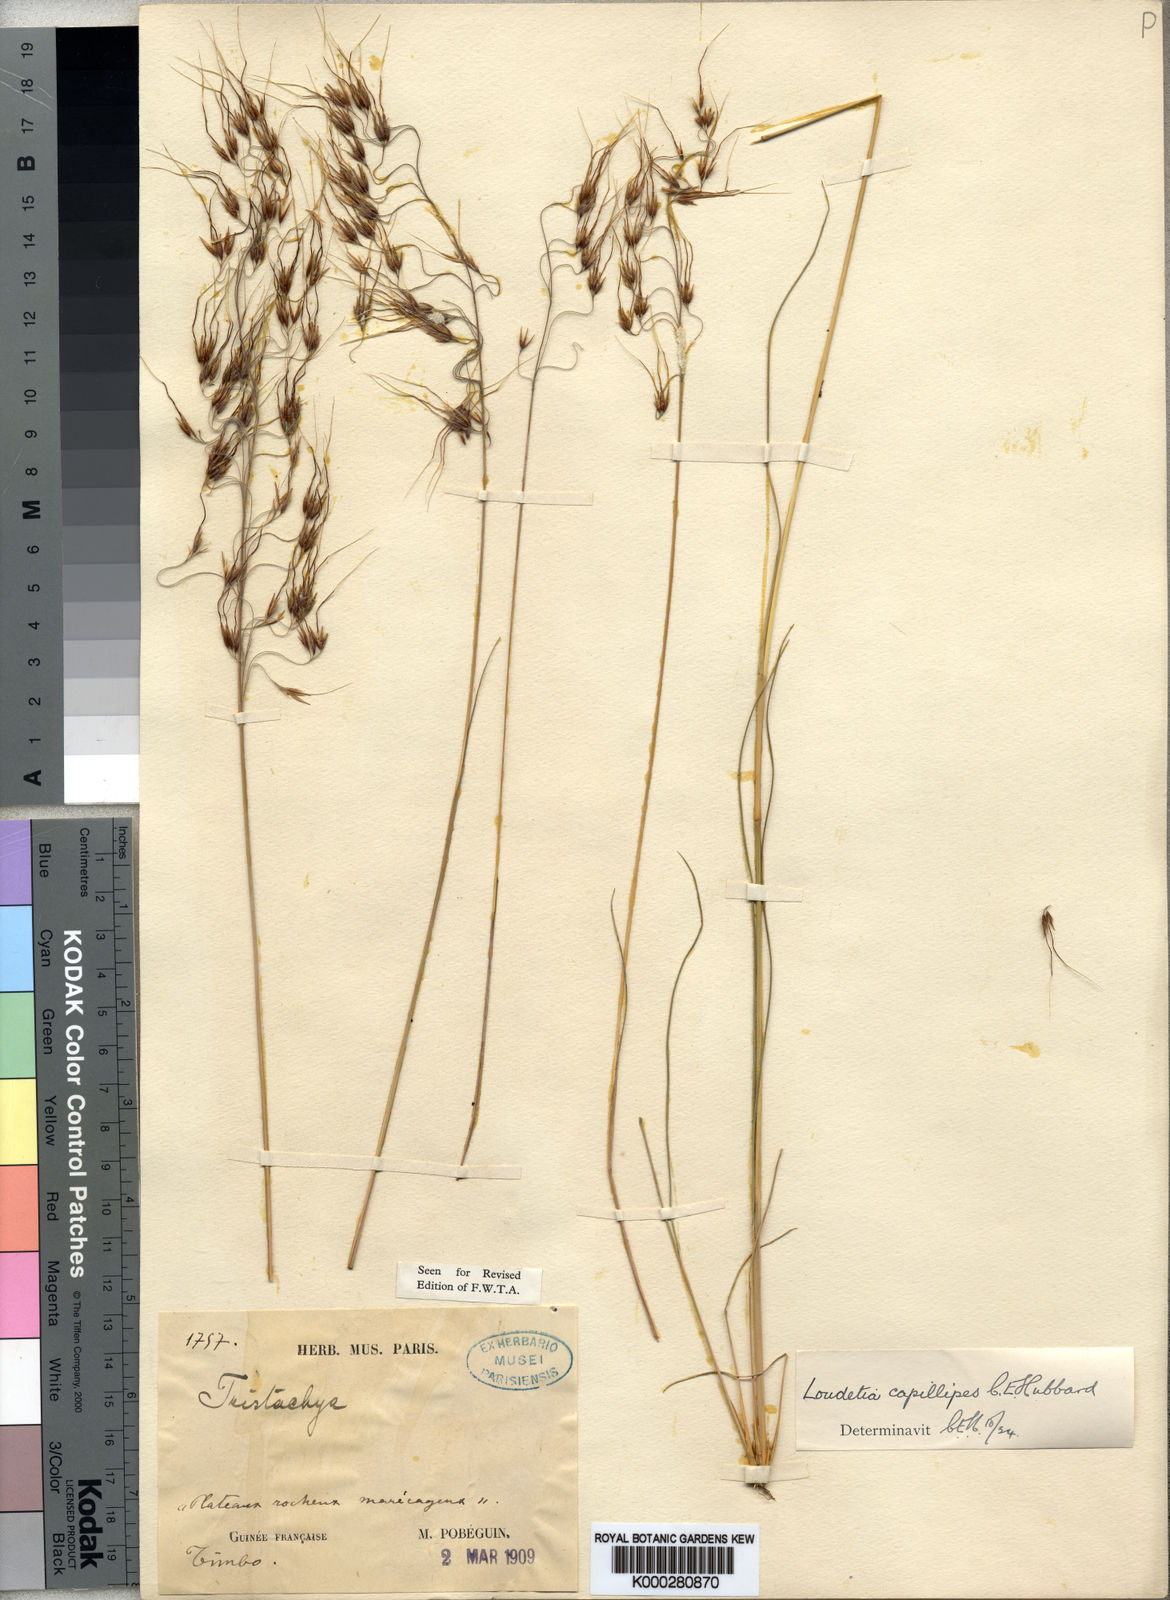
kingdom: Plantae
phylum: Tracheophyta
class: Liliopsida
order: Poales
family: Poaceae
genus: Loudetiopsis
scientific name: Loudetiopsis capillipes
